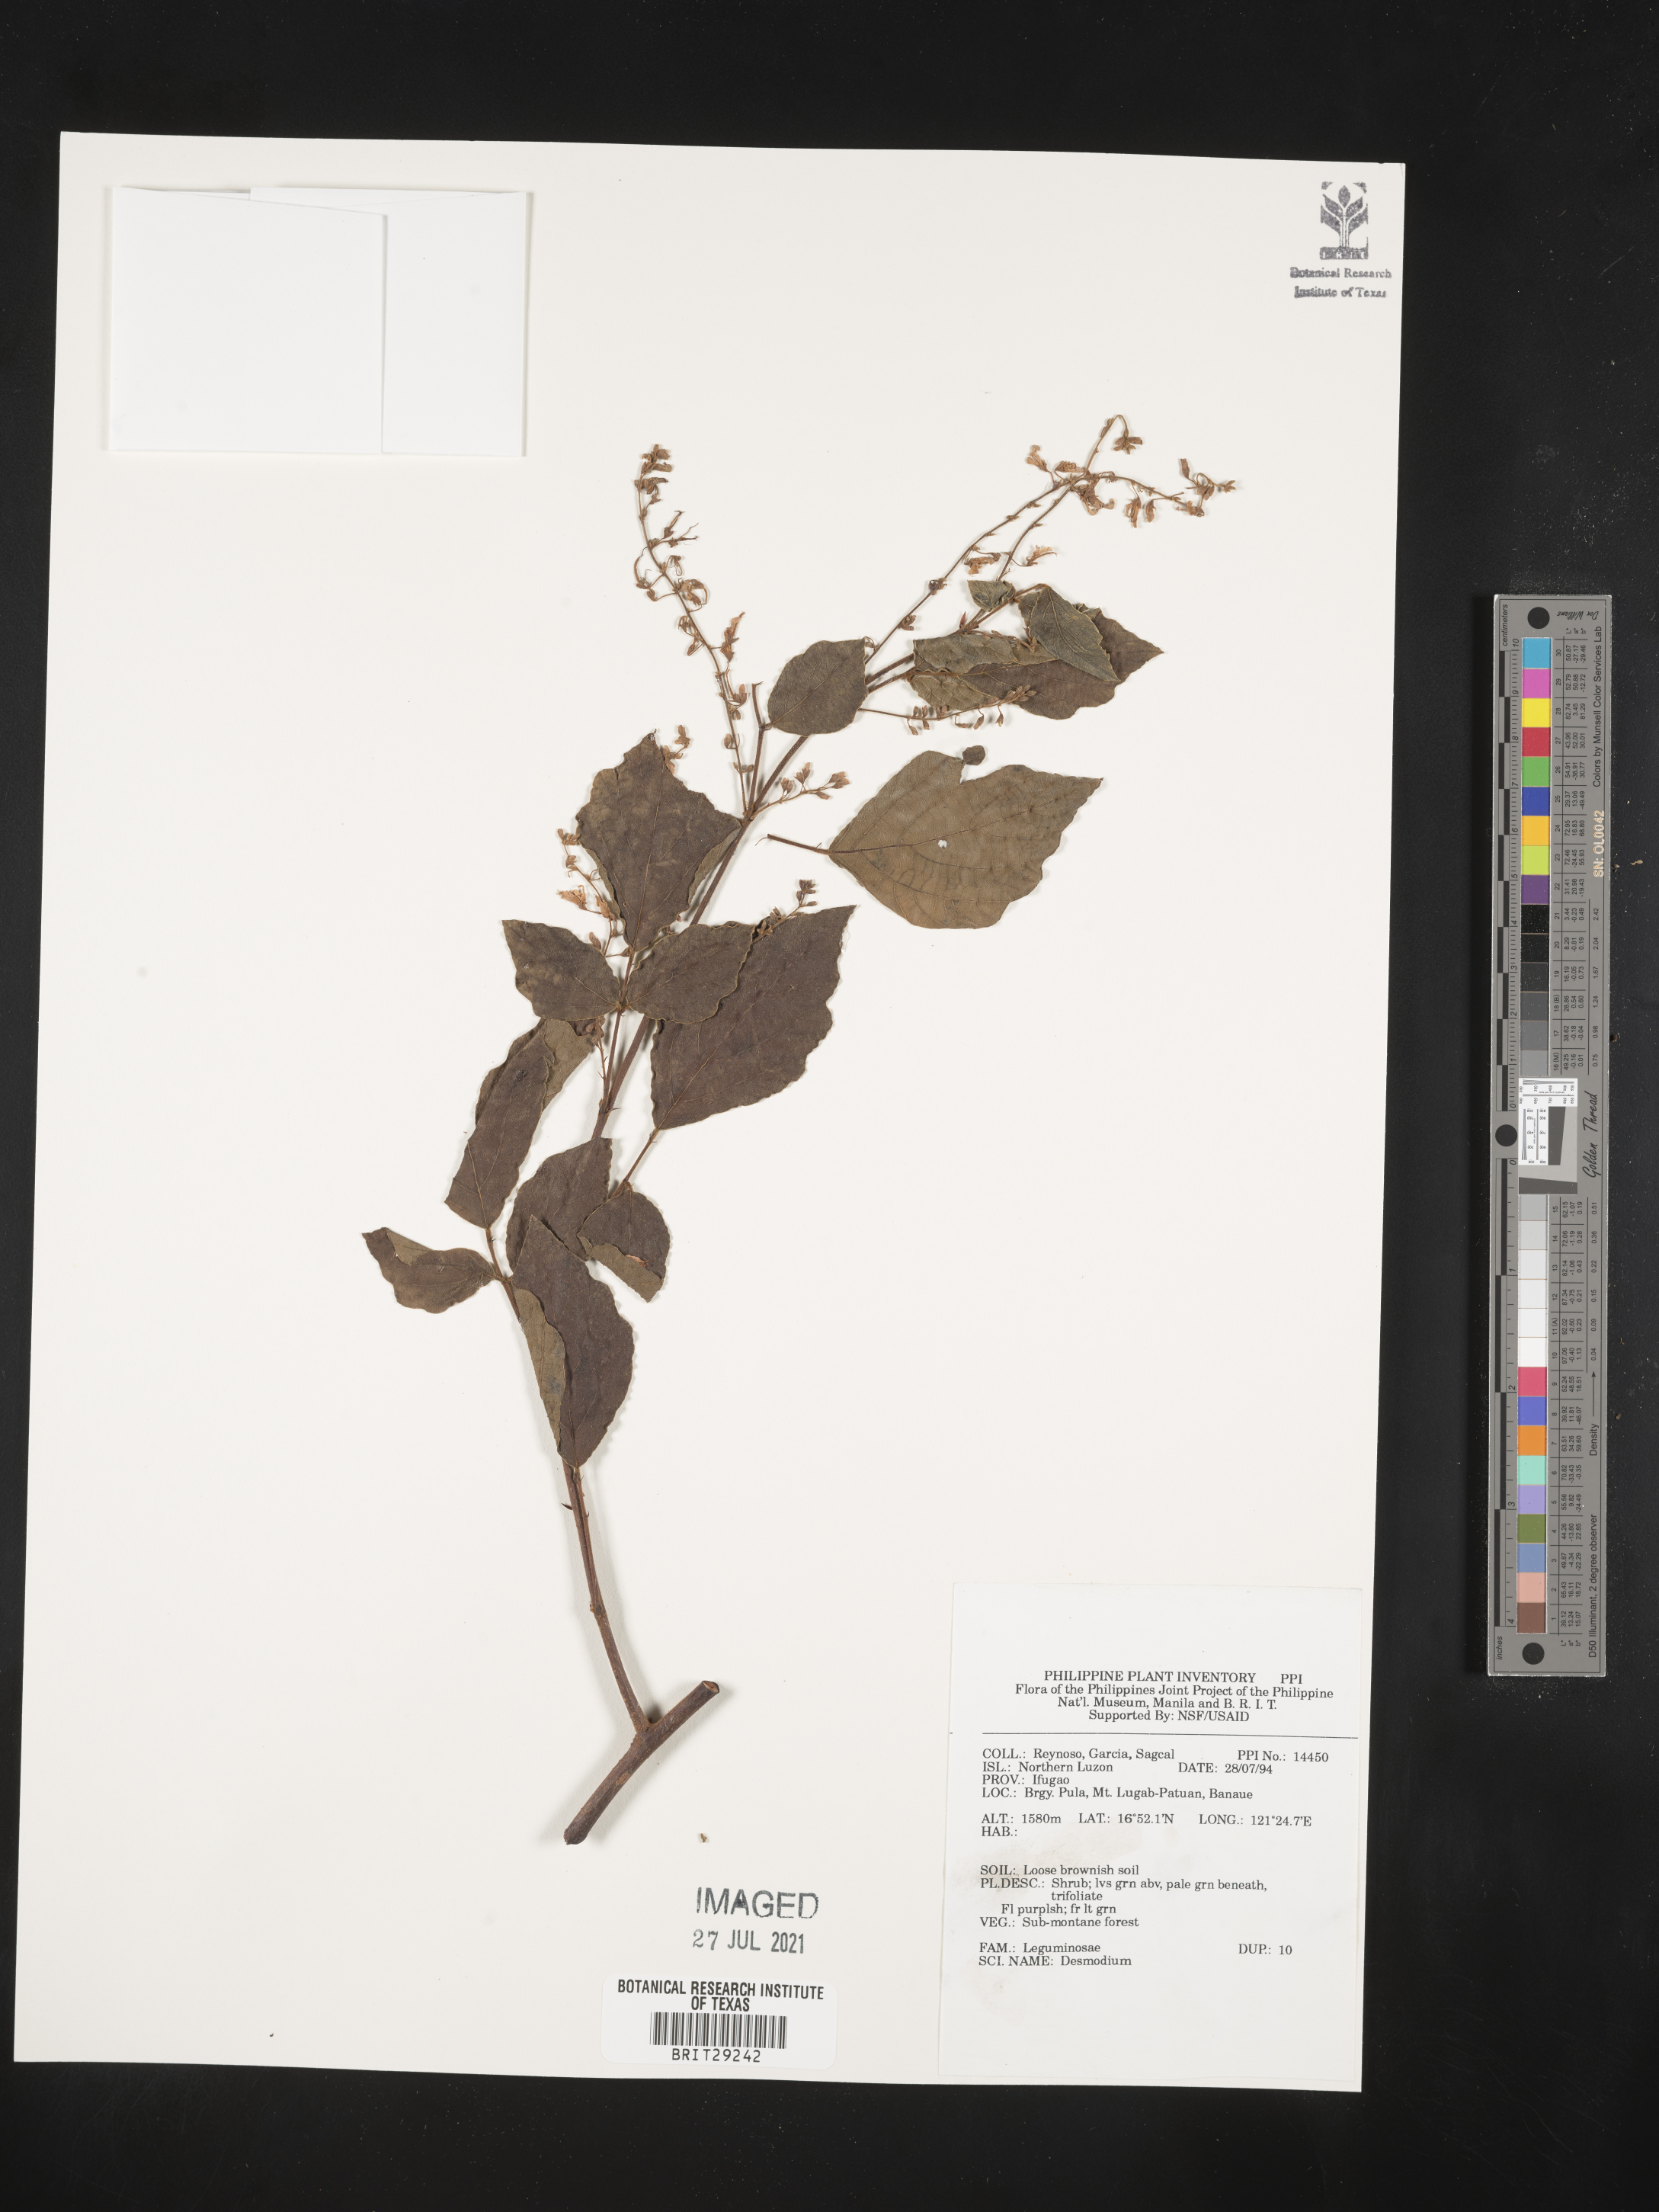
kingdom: Plantae
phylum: Tracheophyta
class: Magnoliopsida
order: Fabales
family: Fabaceae
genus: Desmodium
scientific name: Desmodium
